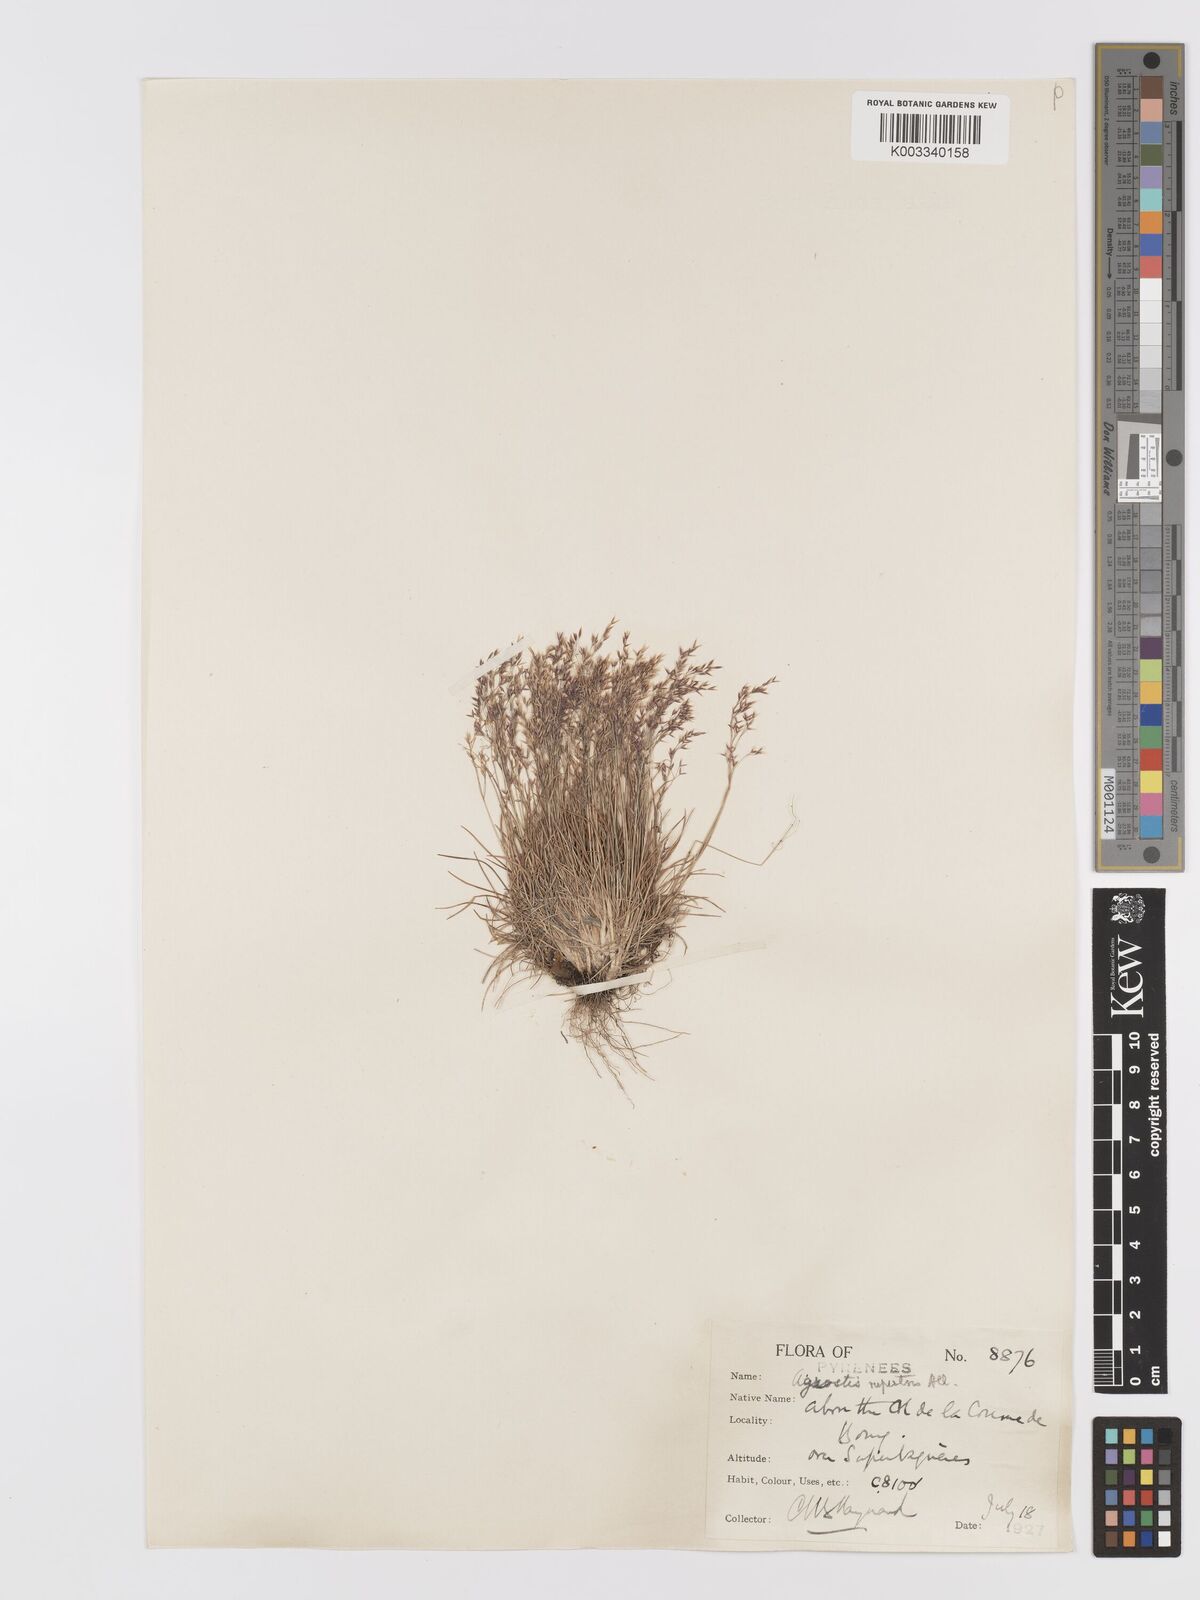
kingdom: Plantae
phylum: Tracheophyta
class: Liliopsida
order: Poales
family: Poaceae
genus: Agrostis
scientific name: Agrostis rupestris
